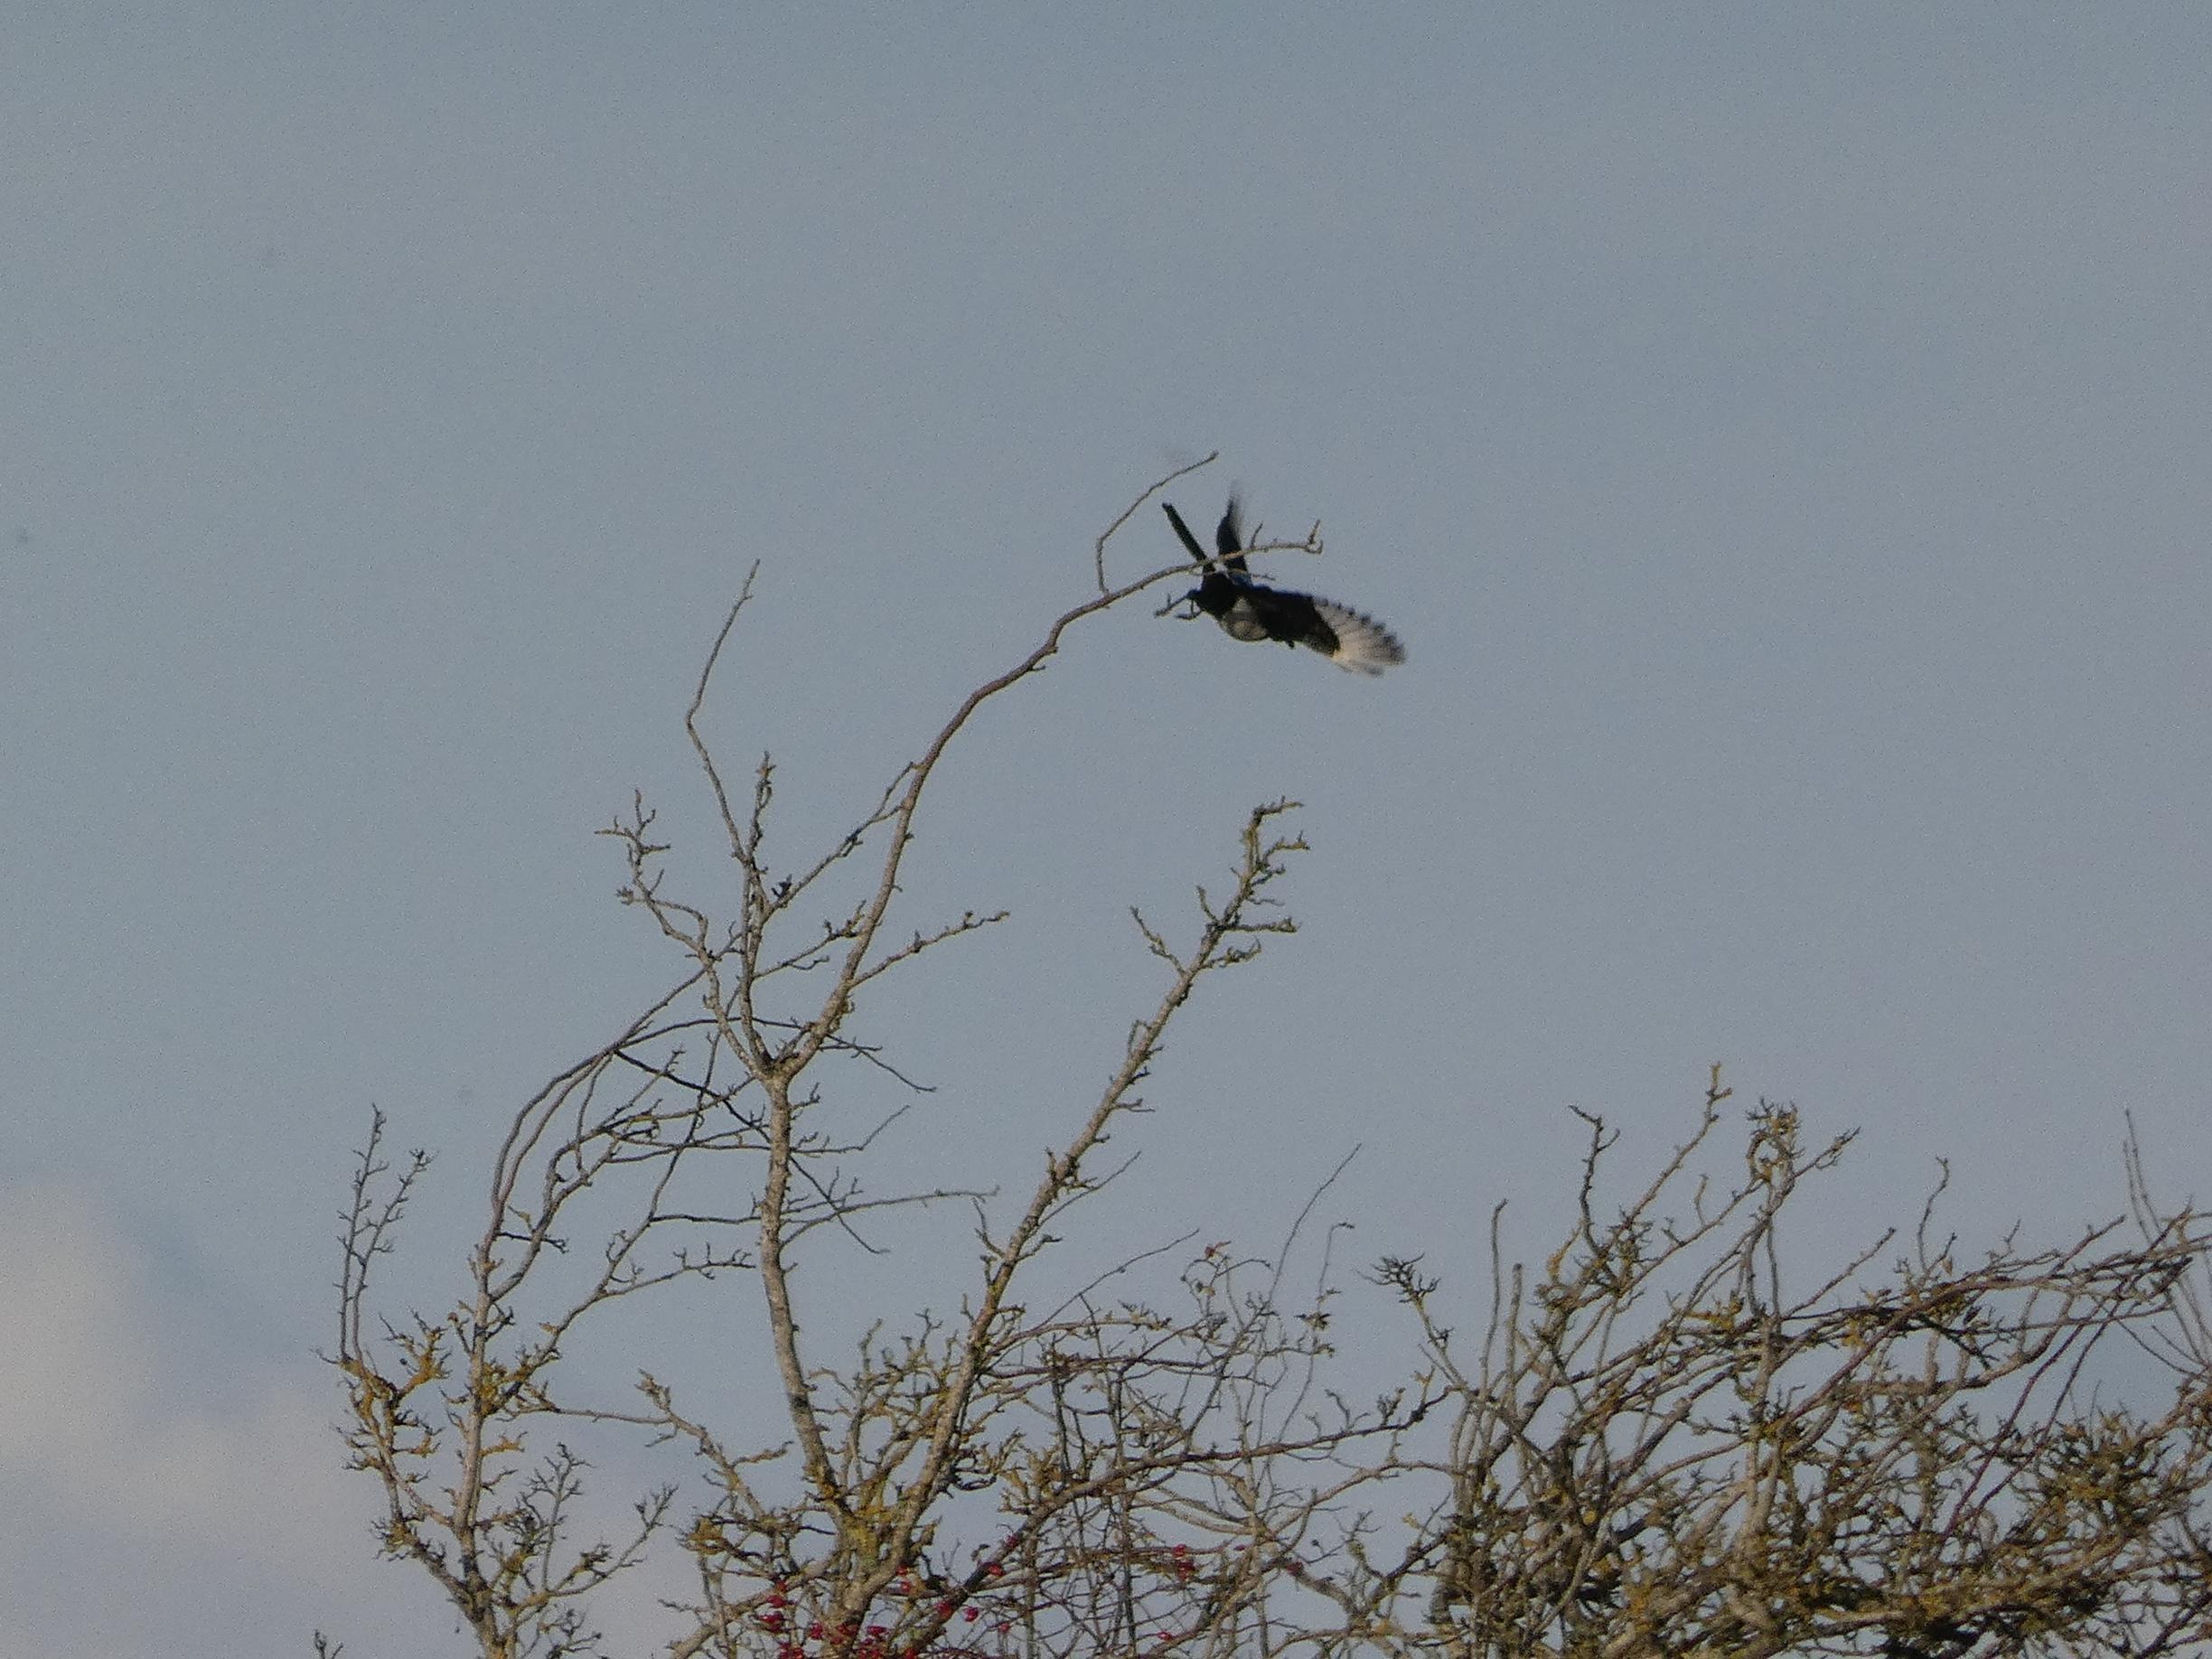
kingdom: Animalia
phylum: Chordata
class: Aves
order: Passeriformes
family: Corvidae
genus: Pica
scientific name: Pica pica
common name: Husskade
